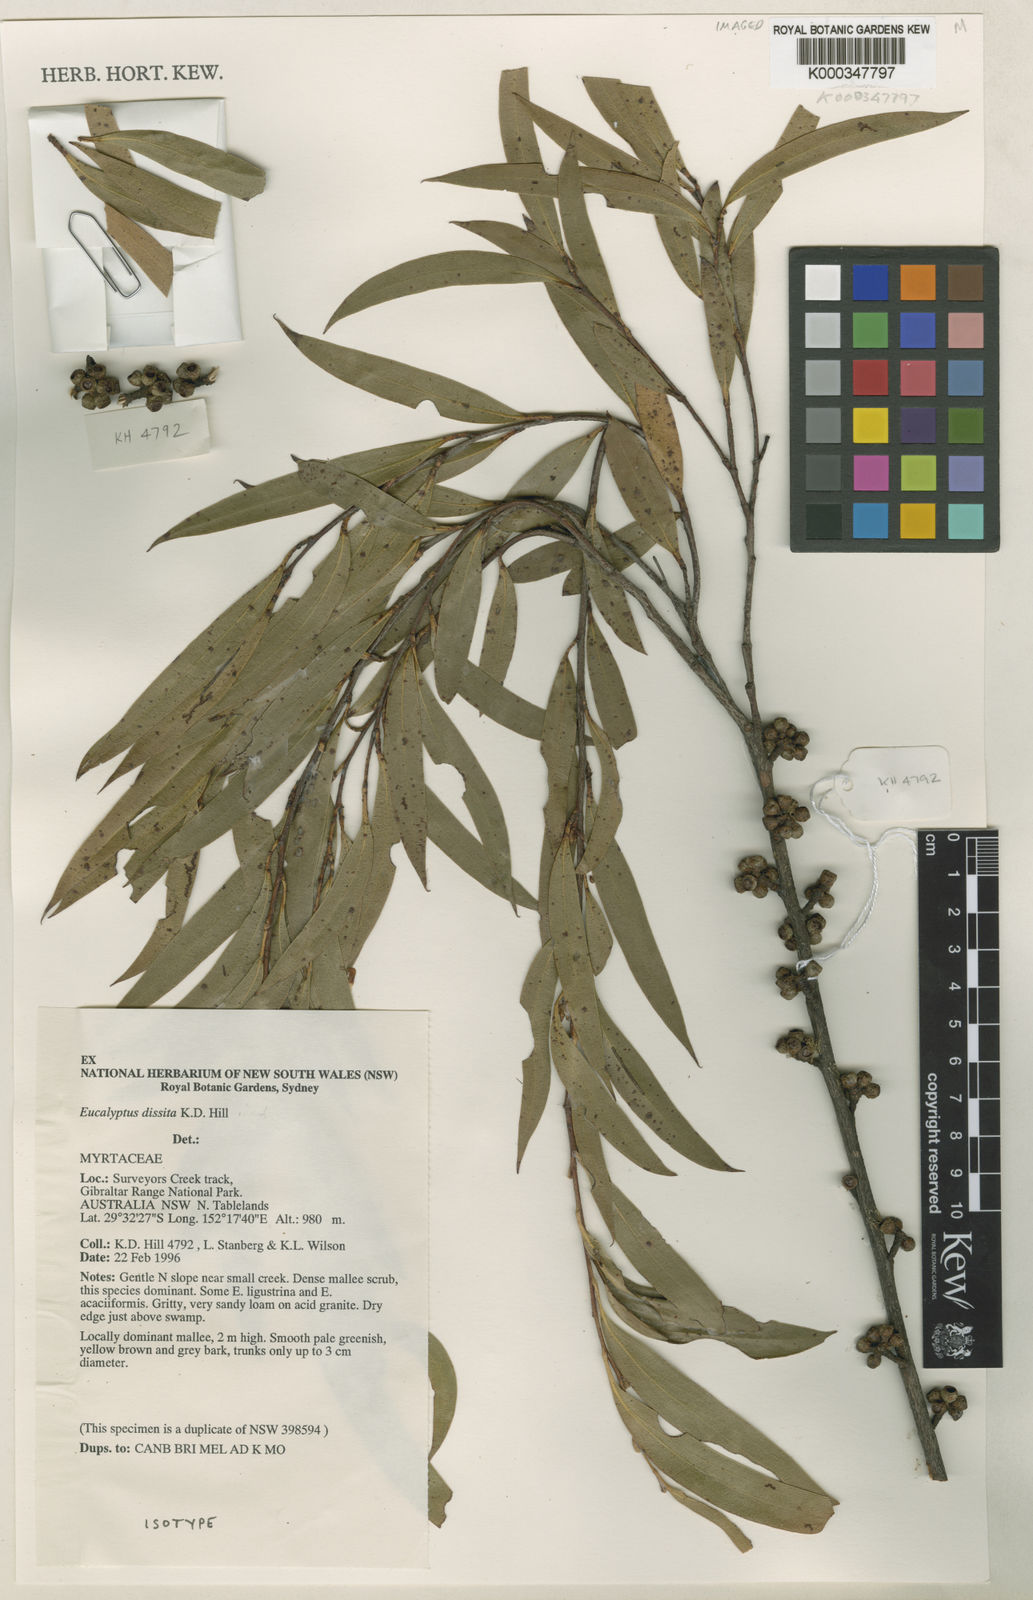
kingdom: Plantae
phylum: Tracheophyta
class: Magnoliopsida
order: Myrtales
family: Myrtaceae
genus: Eucalyptus
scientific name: Eucalyptus dissita
